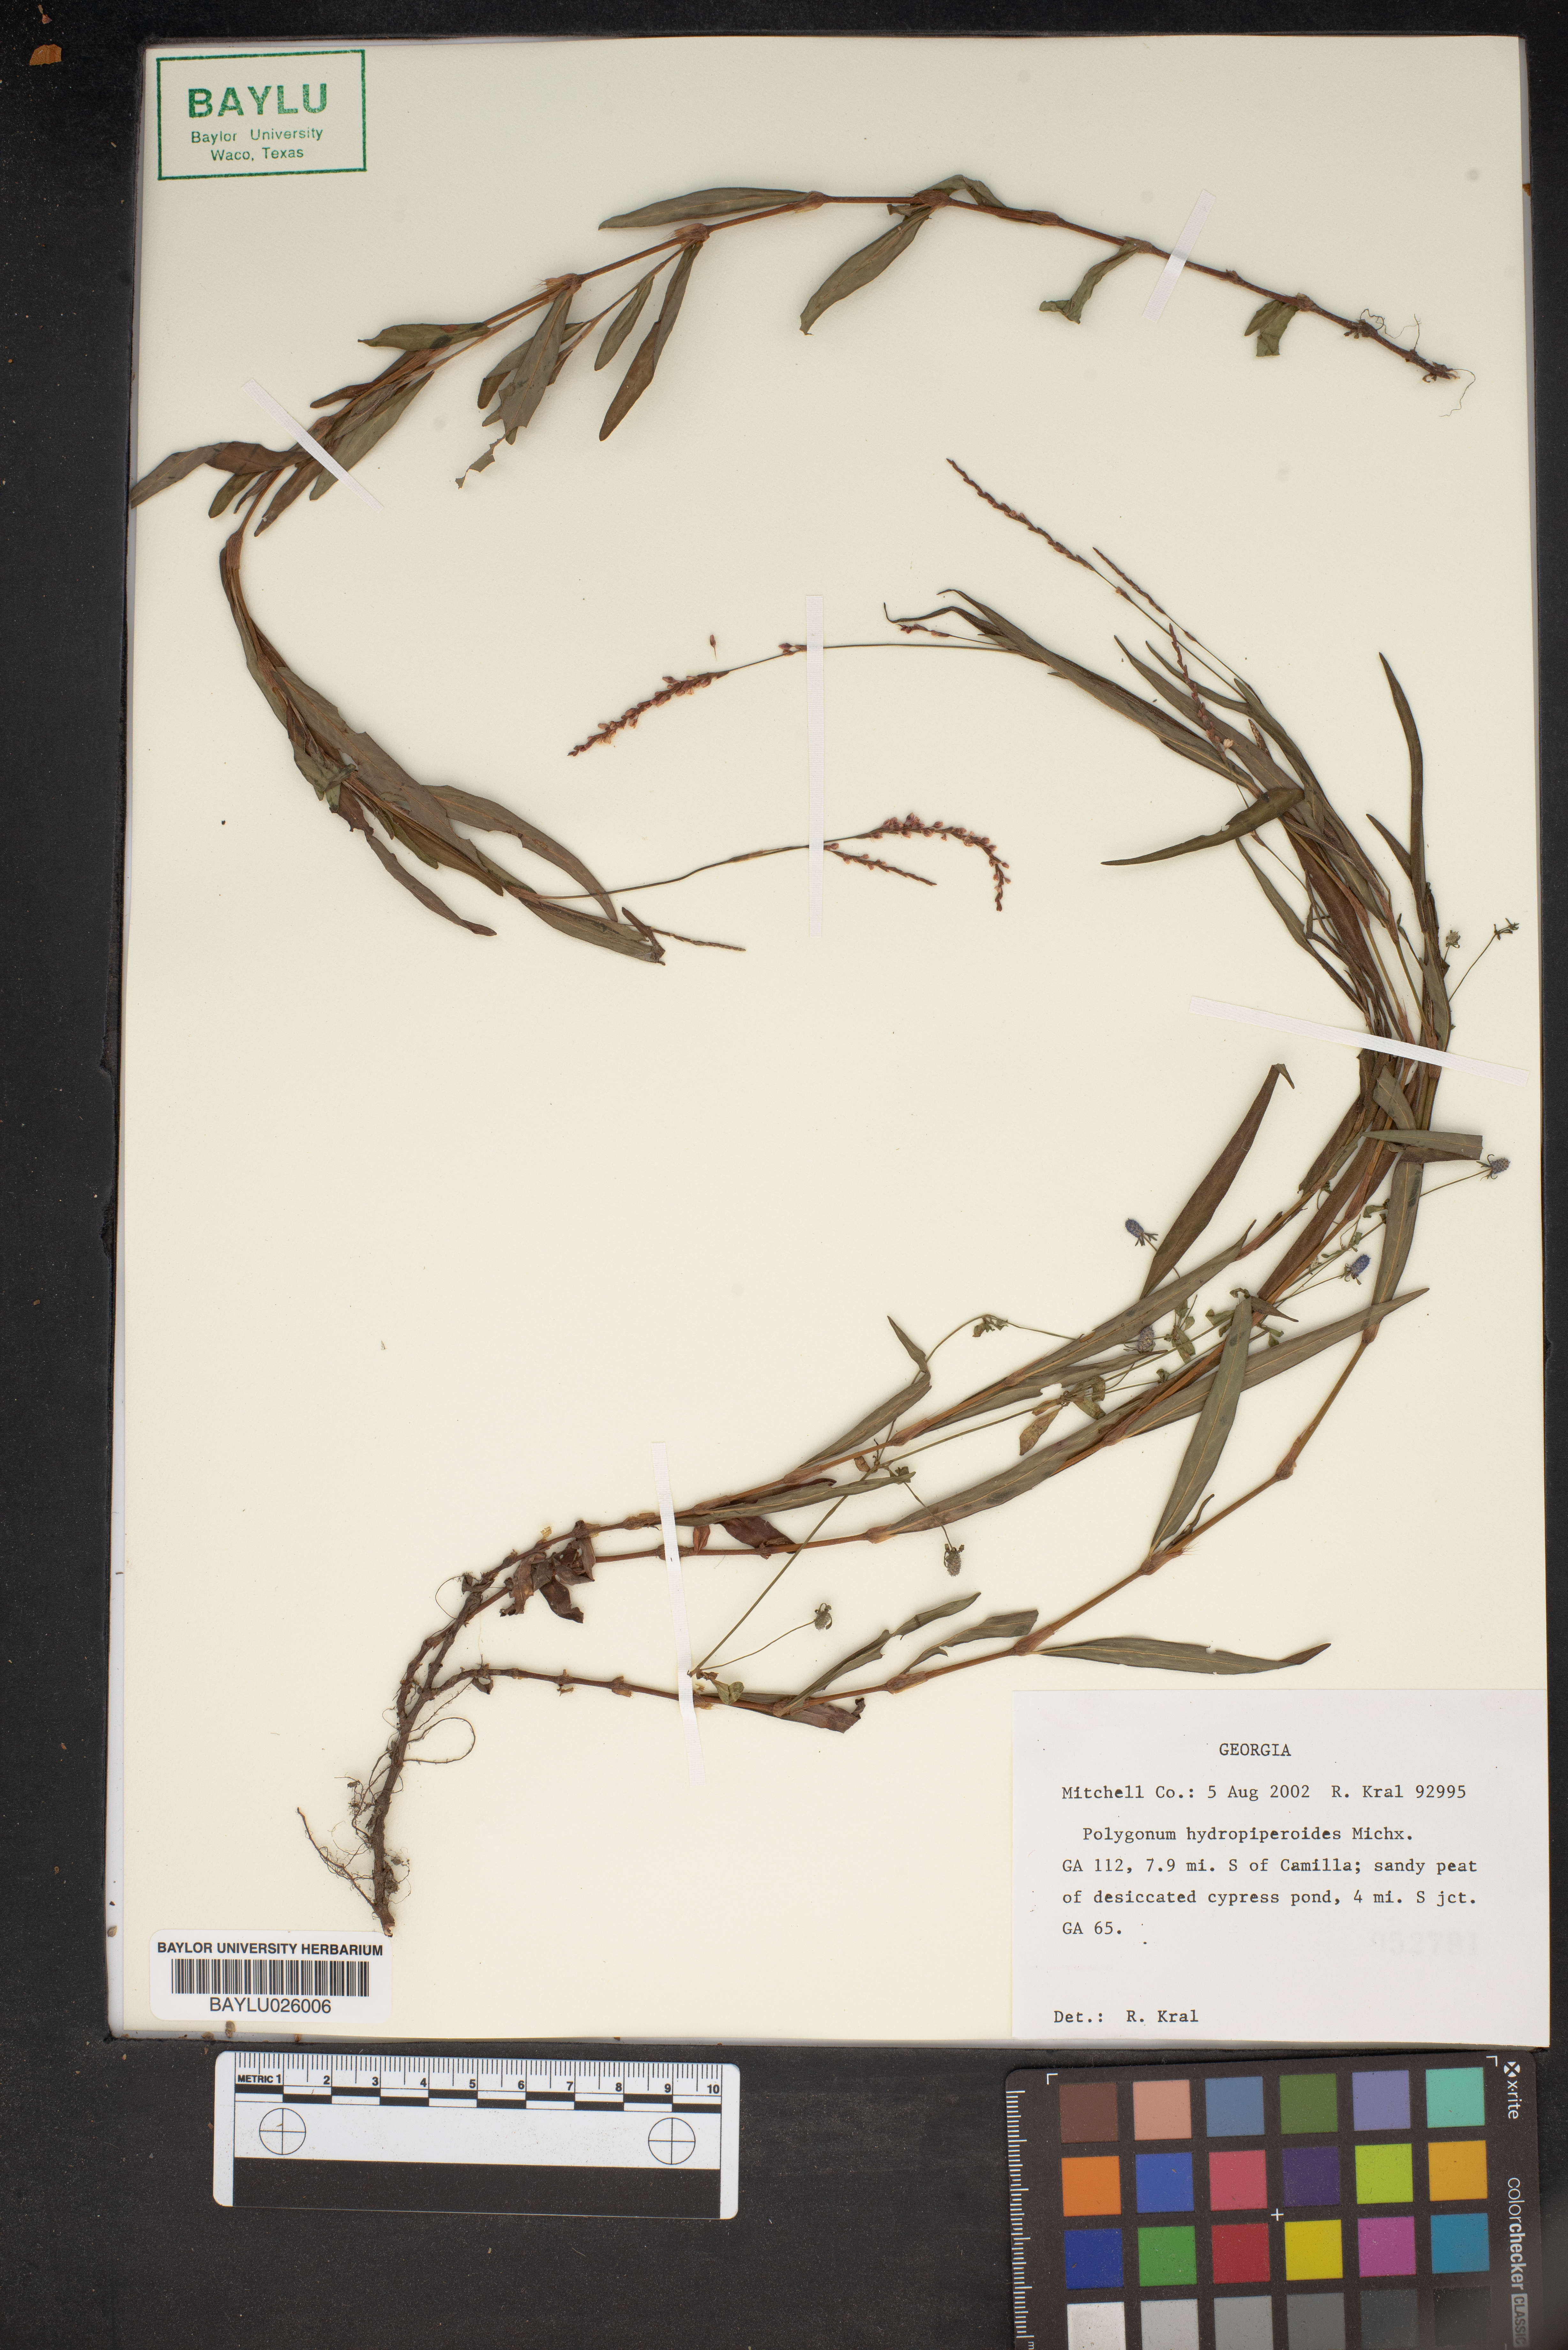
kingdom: Plantae
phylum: Tracheophyta
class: Magnoliopsida
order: Caryophyllales
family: Polygonaceae
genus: Persicaria
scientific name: Persicaria hydropiperoides
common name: Swamp smartweed
